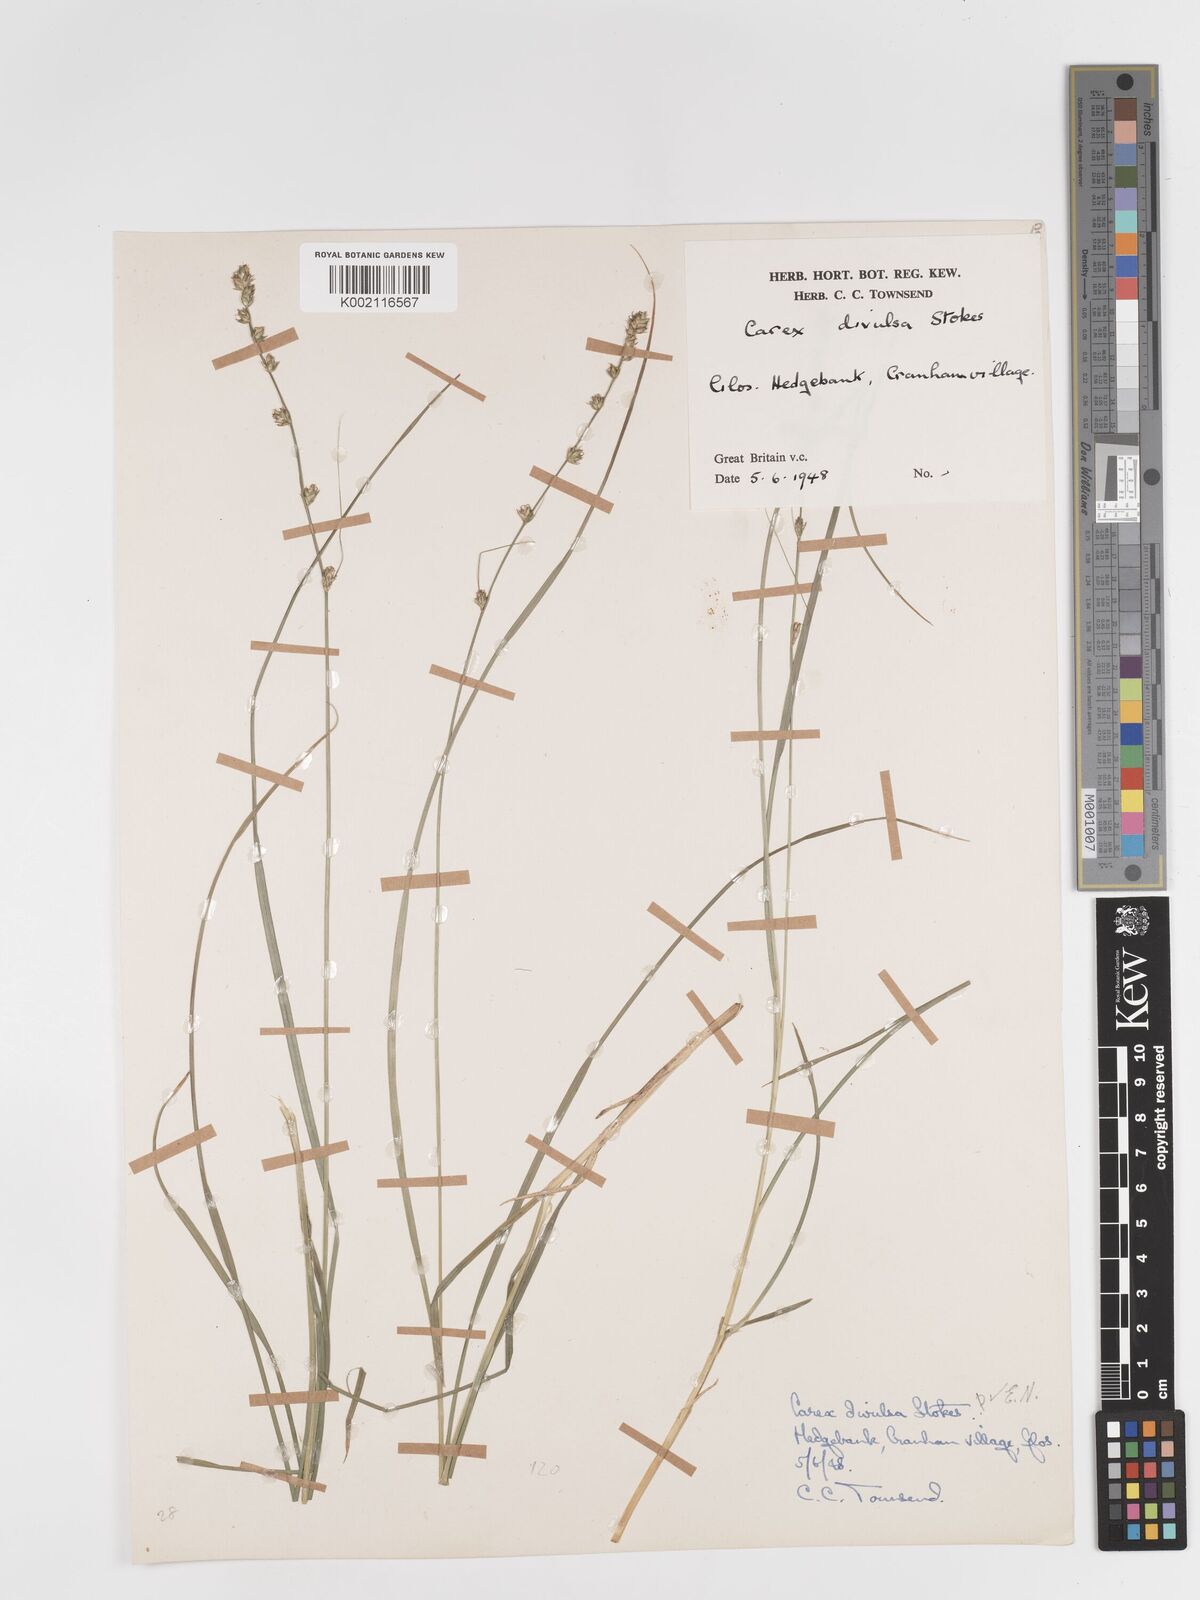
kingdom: Plantae
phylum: Tracheophyta
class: Liliopsida
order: Poales
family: Cyperaceae
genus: Carex
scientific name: Carex divulsa
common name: Grassland sedge
